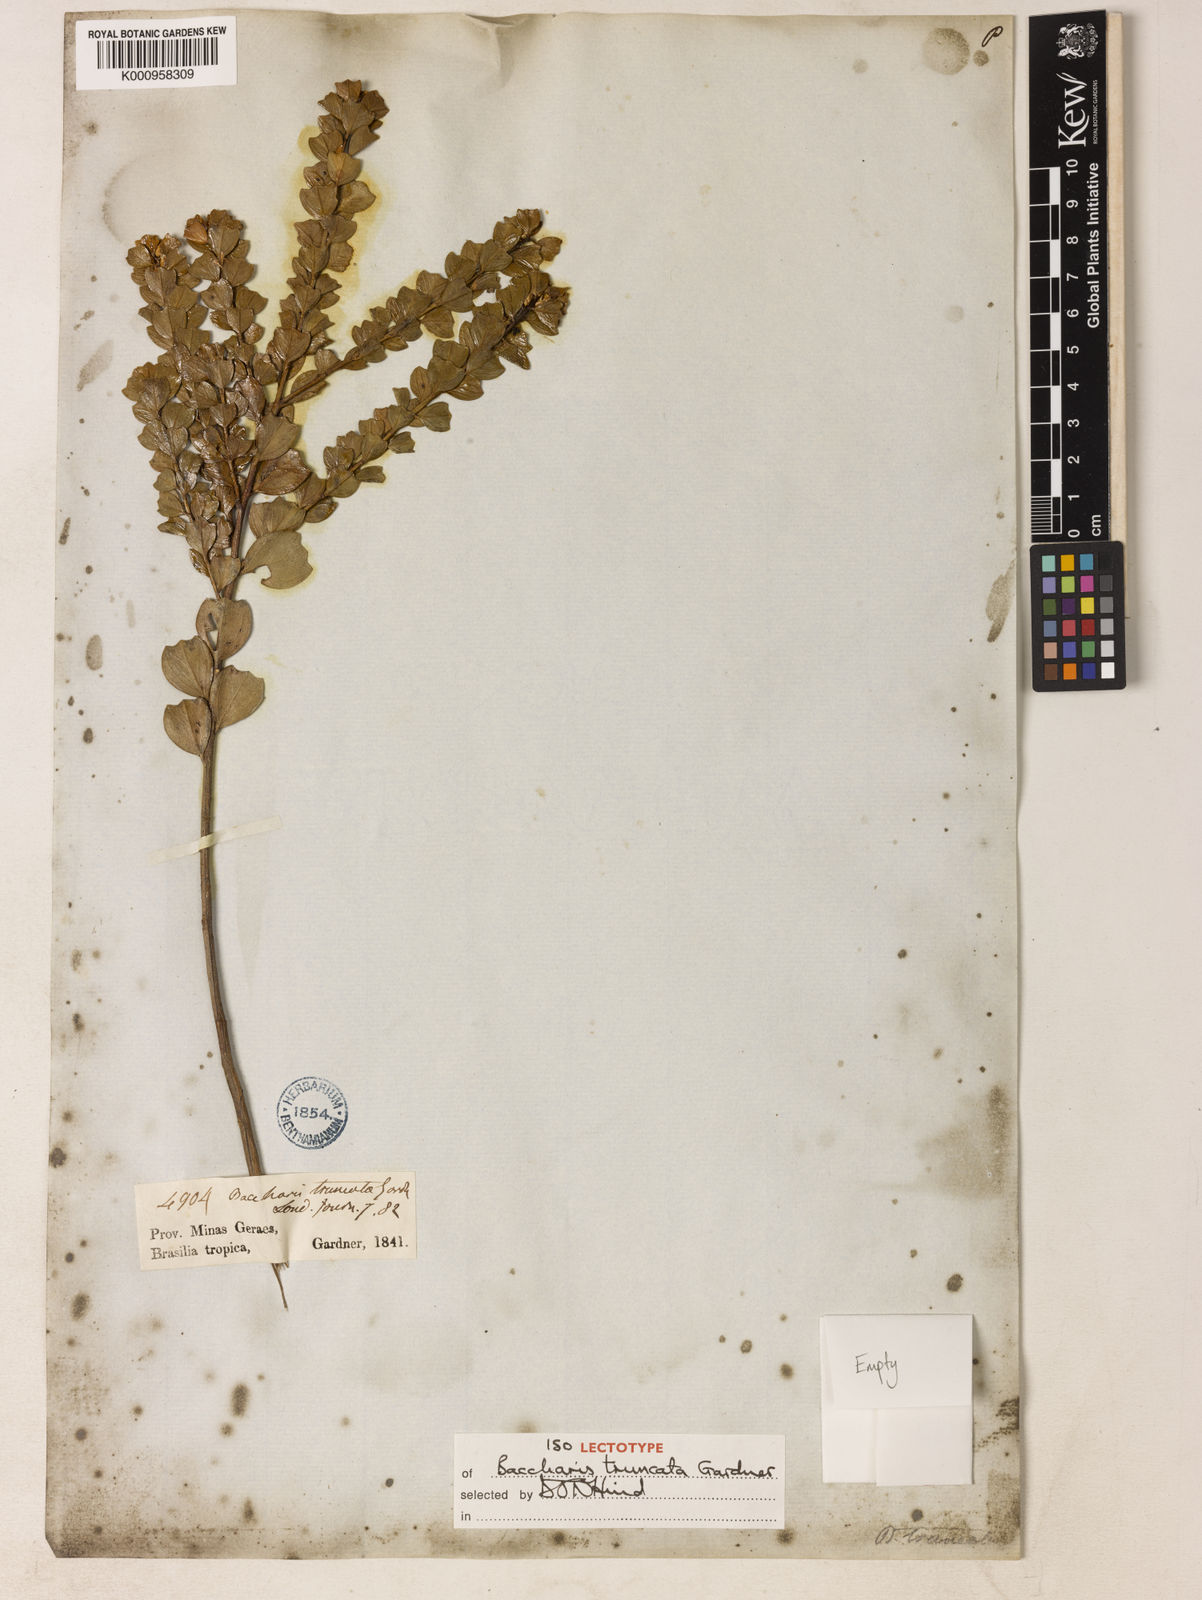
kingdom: Plantae
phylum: Tracheophyta
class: Magnoliopsida
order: Asterales
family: Asteraceae
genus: Baccharis
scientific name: Baccharis truncata
